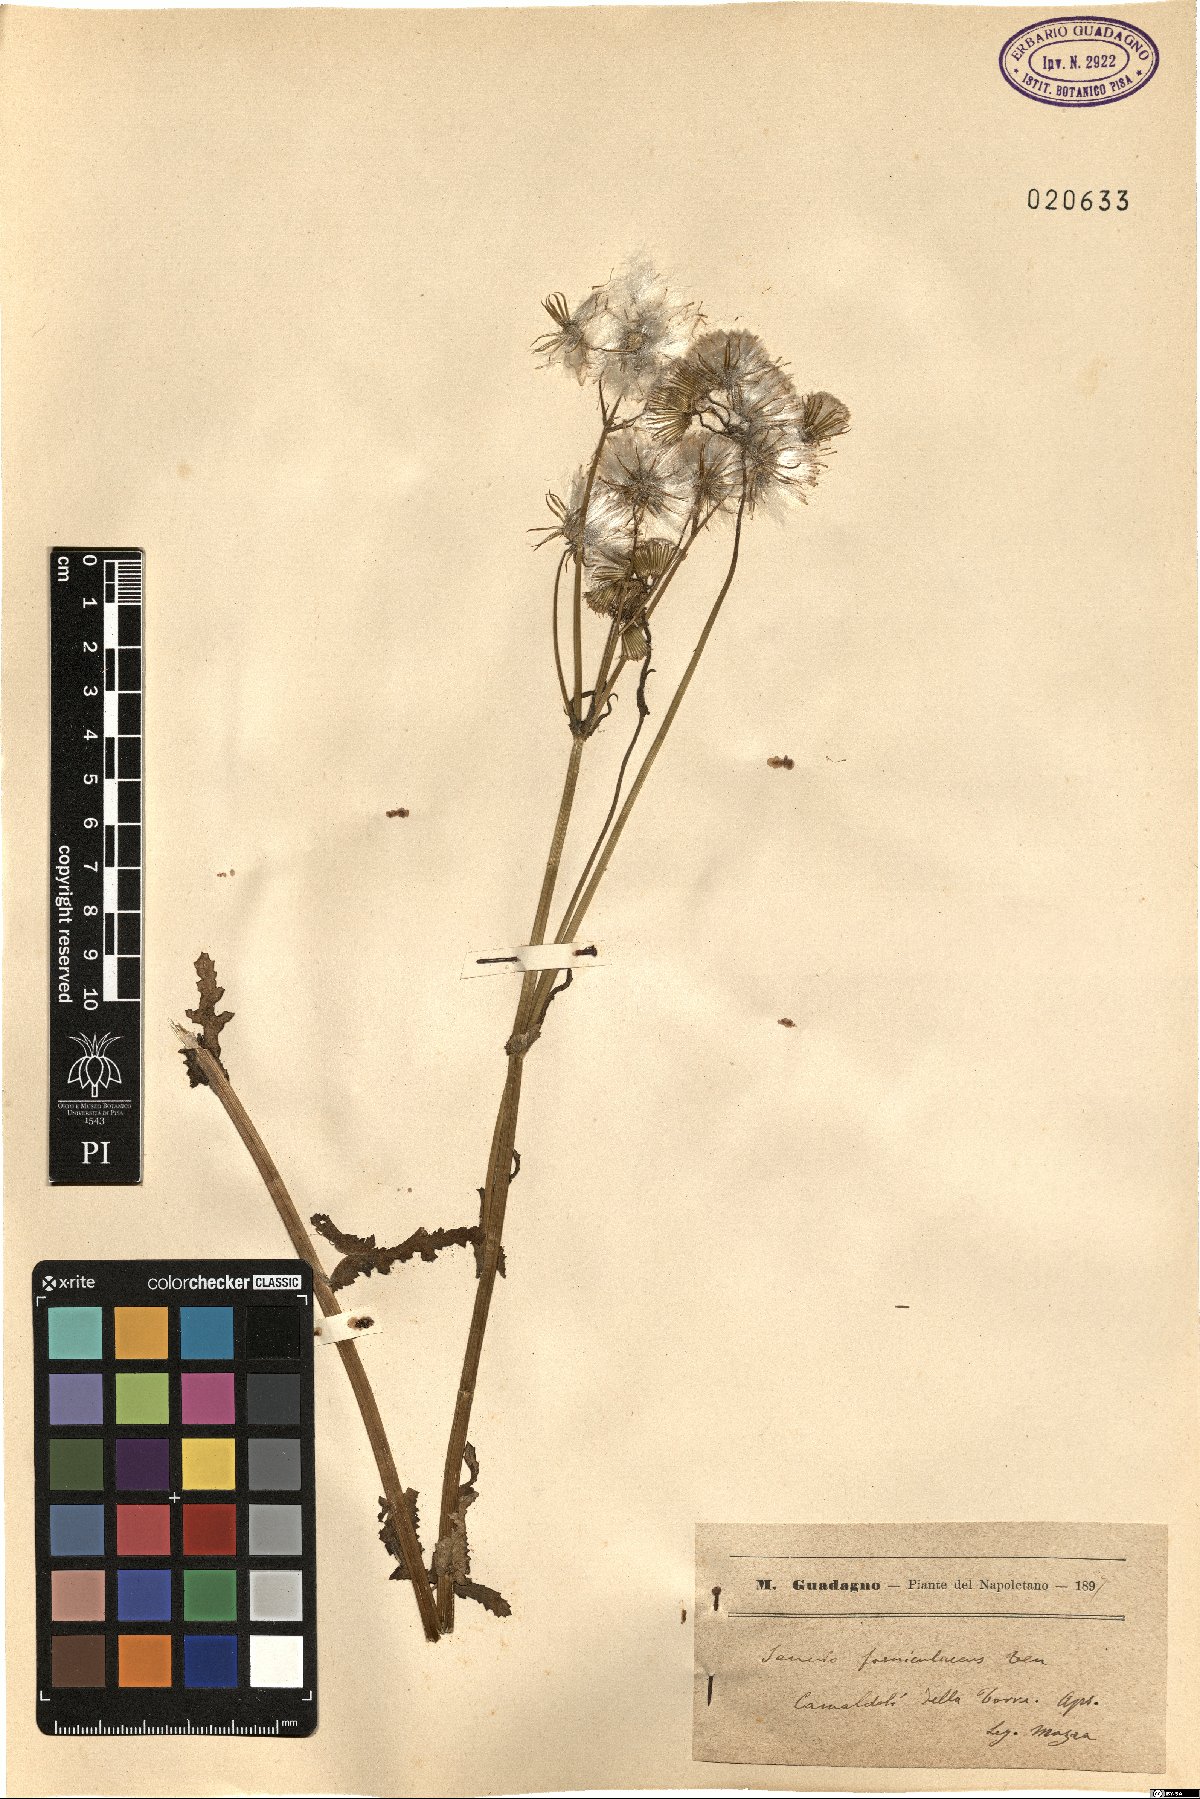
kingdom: Plantae
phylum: Tracheophyta
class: Magnoliopsida
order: Asterales
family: Asteraceae
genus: Senecio
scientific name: Senecio lividus
